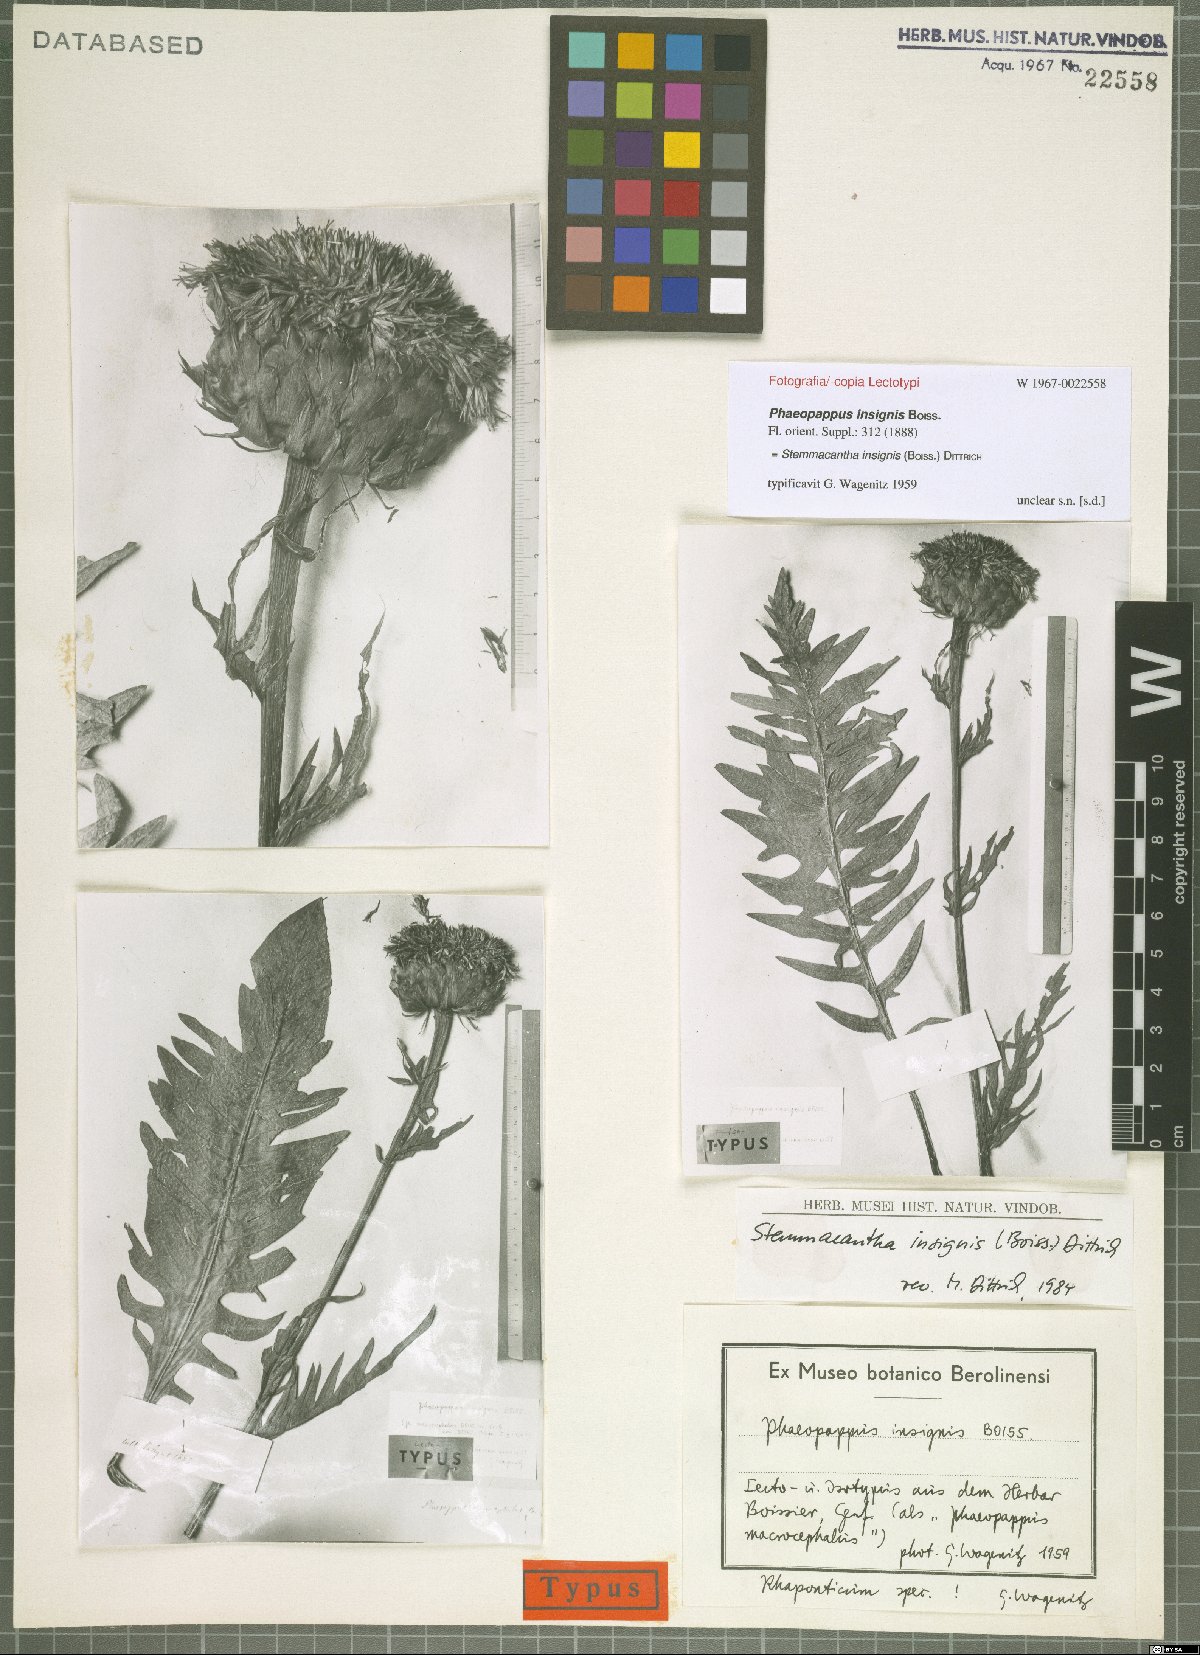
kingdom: Plantae
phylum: Tracheophyta
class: Magnoliopsida
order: Asterales
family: Asteraceae
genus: Leuzea
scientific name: Leuzea insignis
